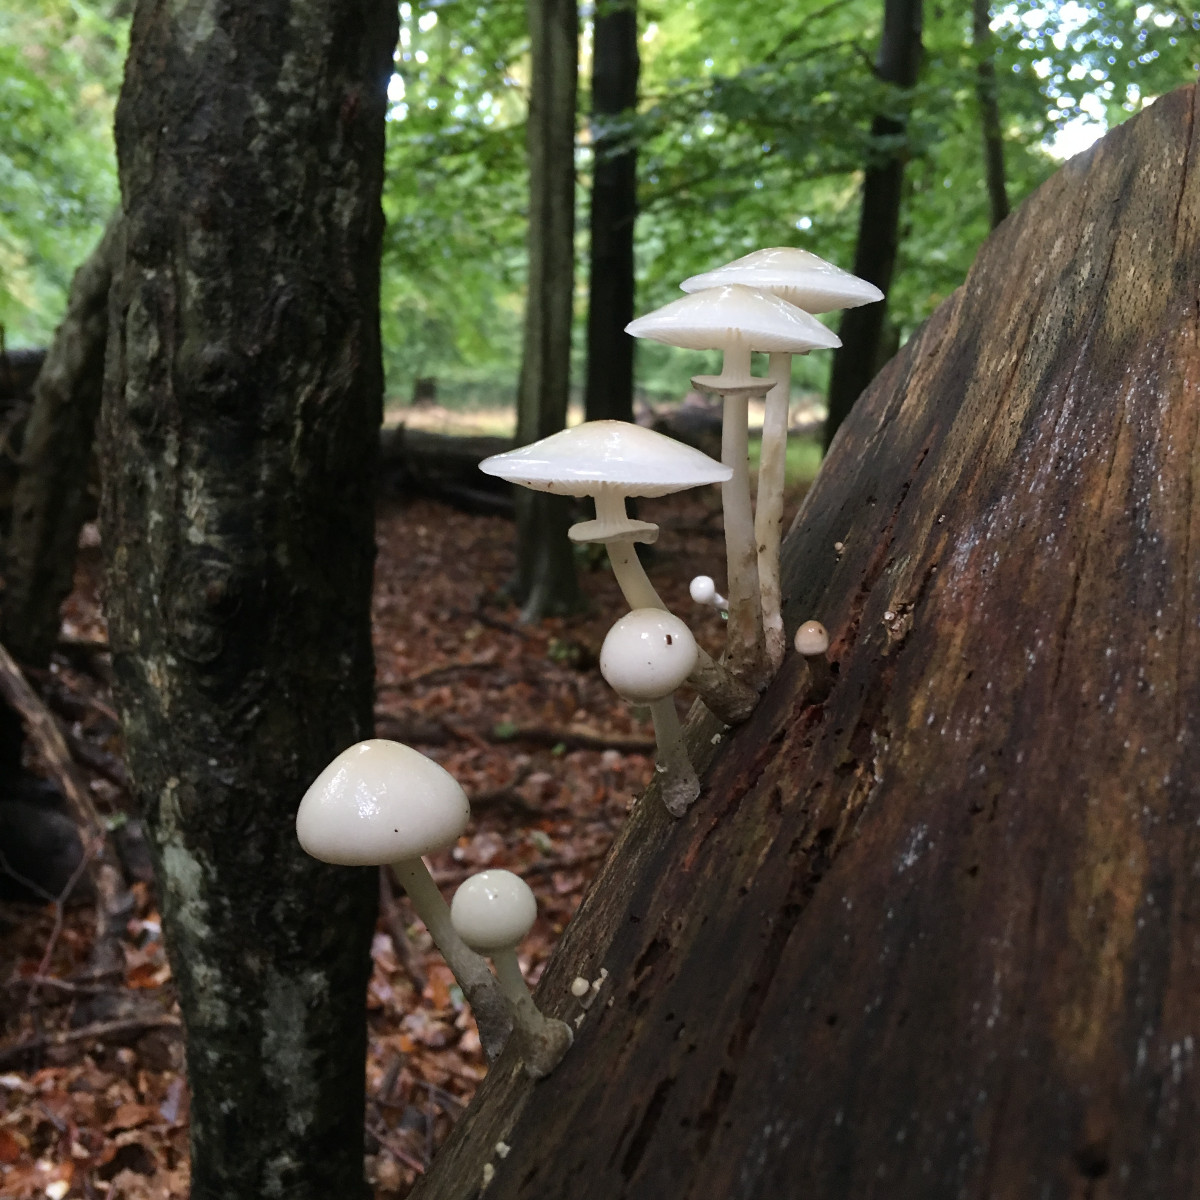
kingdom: Fungi
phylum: Basidiomycota
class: Agaricomycetes
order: Agaricales
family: Physalacriaceae
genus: Mucidula
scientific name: Mucidula mucida
